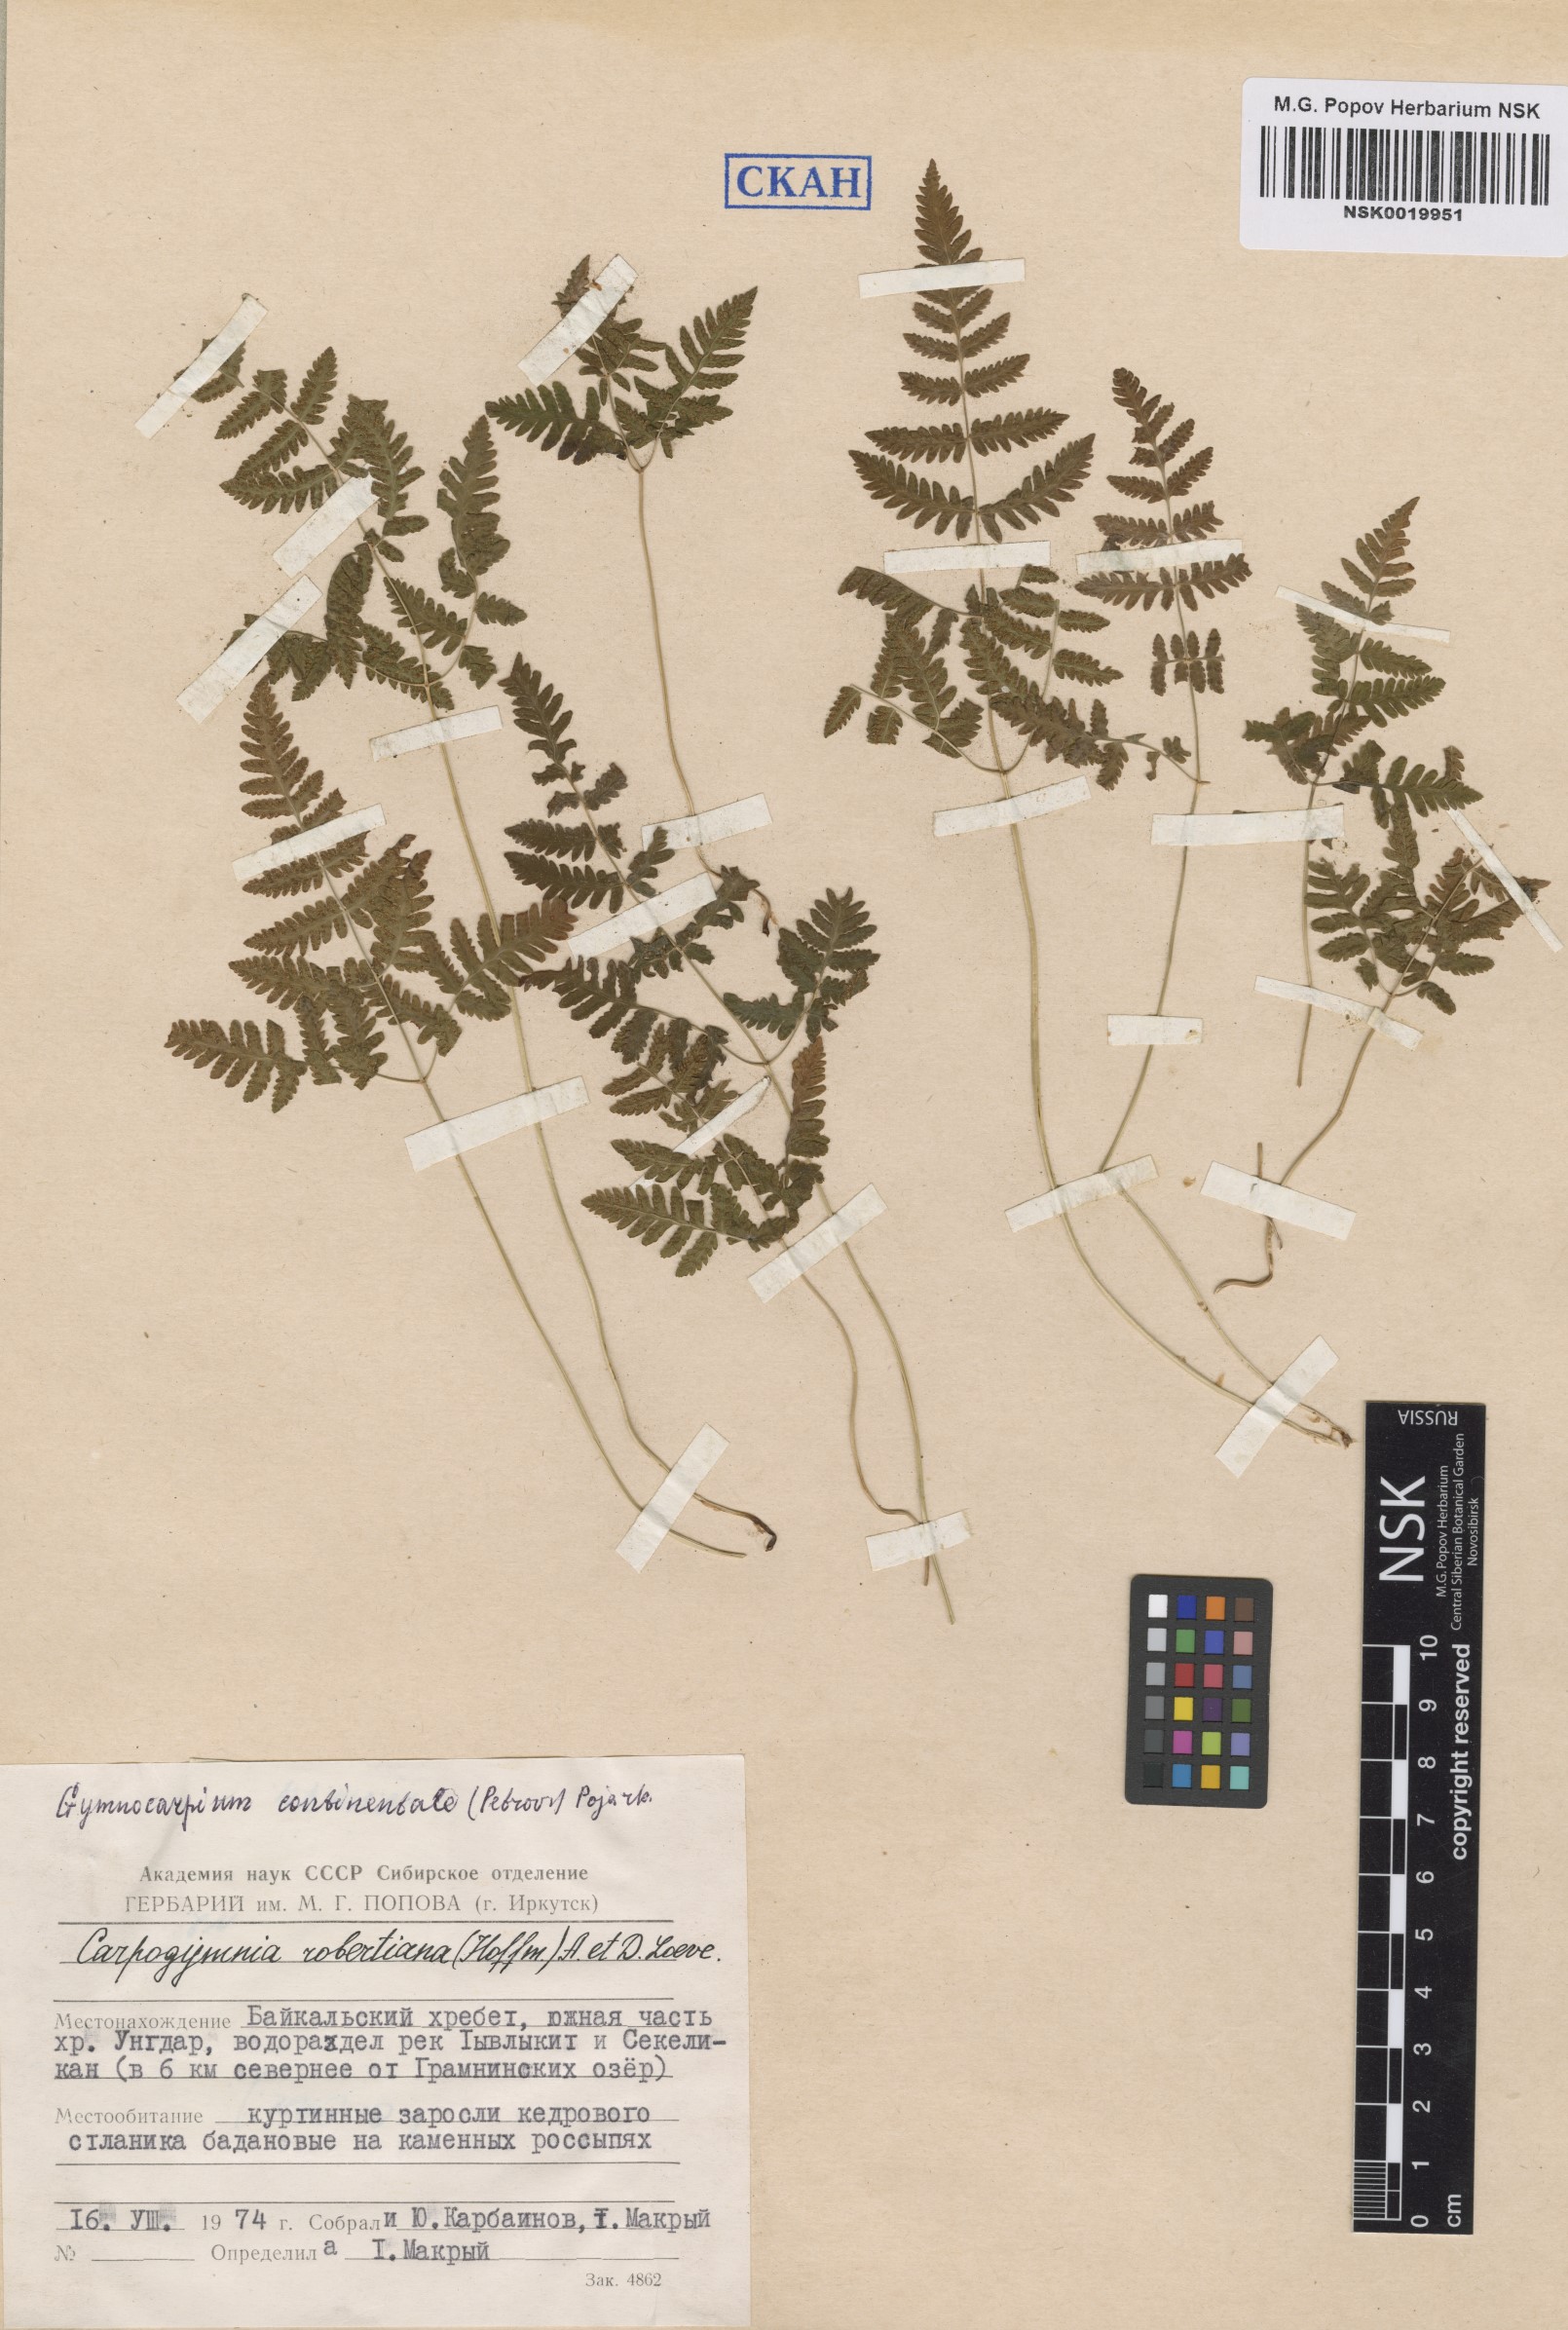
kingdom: Plantae
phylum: Tracheophyta
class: Polypodiopsida
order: Polypodiales
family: Cystopteridaceae
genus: Gymnocarpium
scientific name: Gymnocarpium continentale
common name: Asian oak fern
